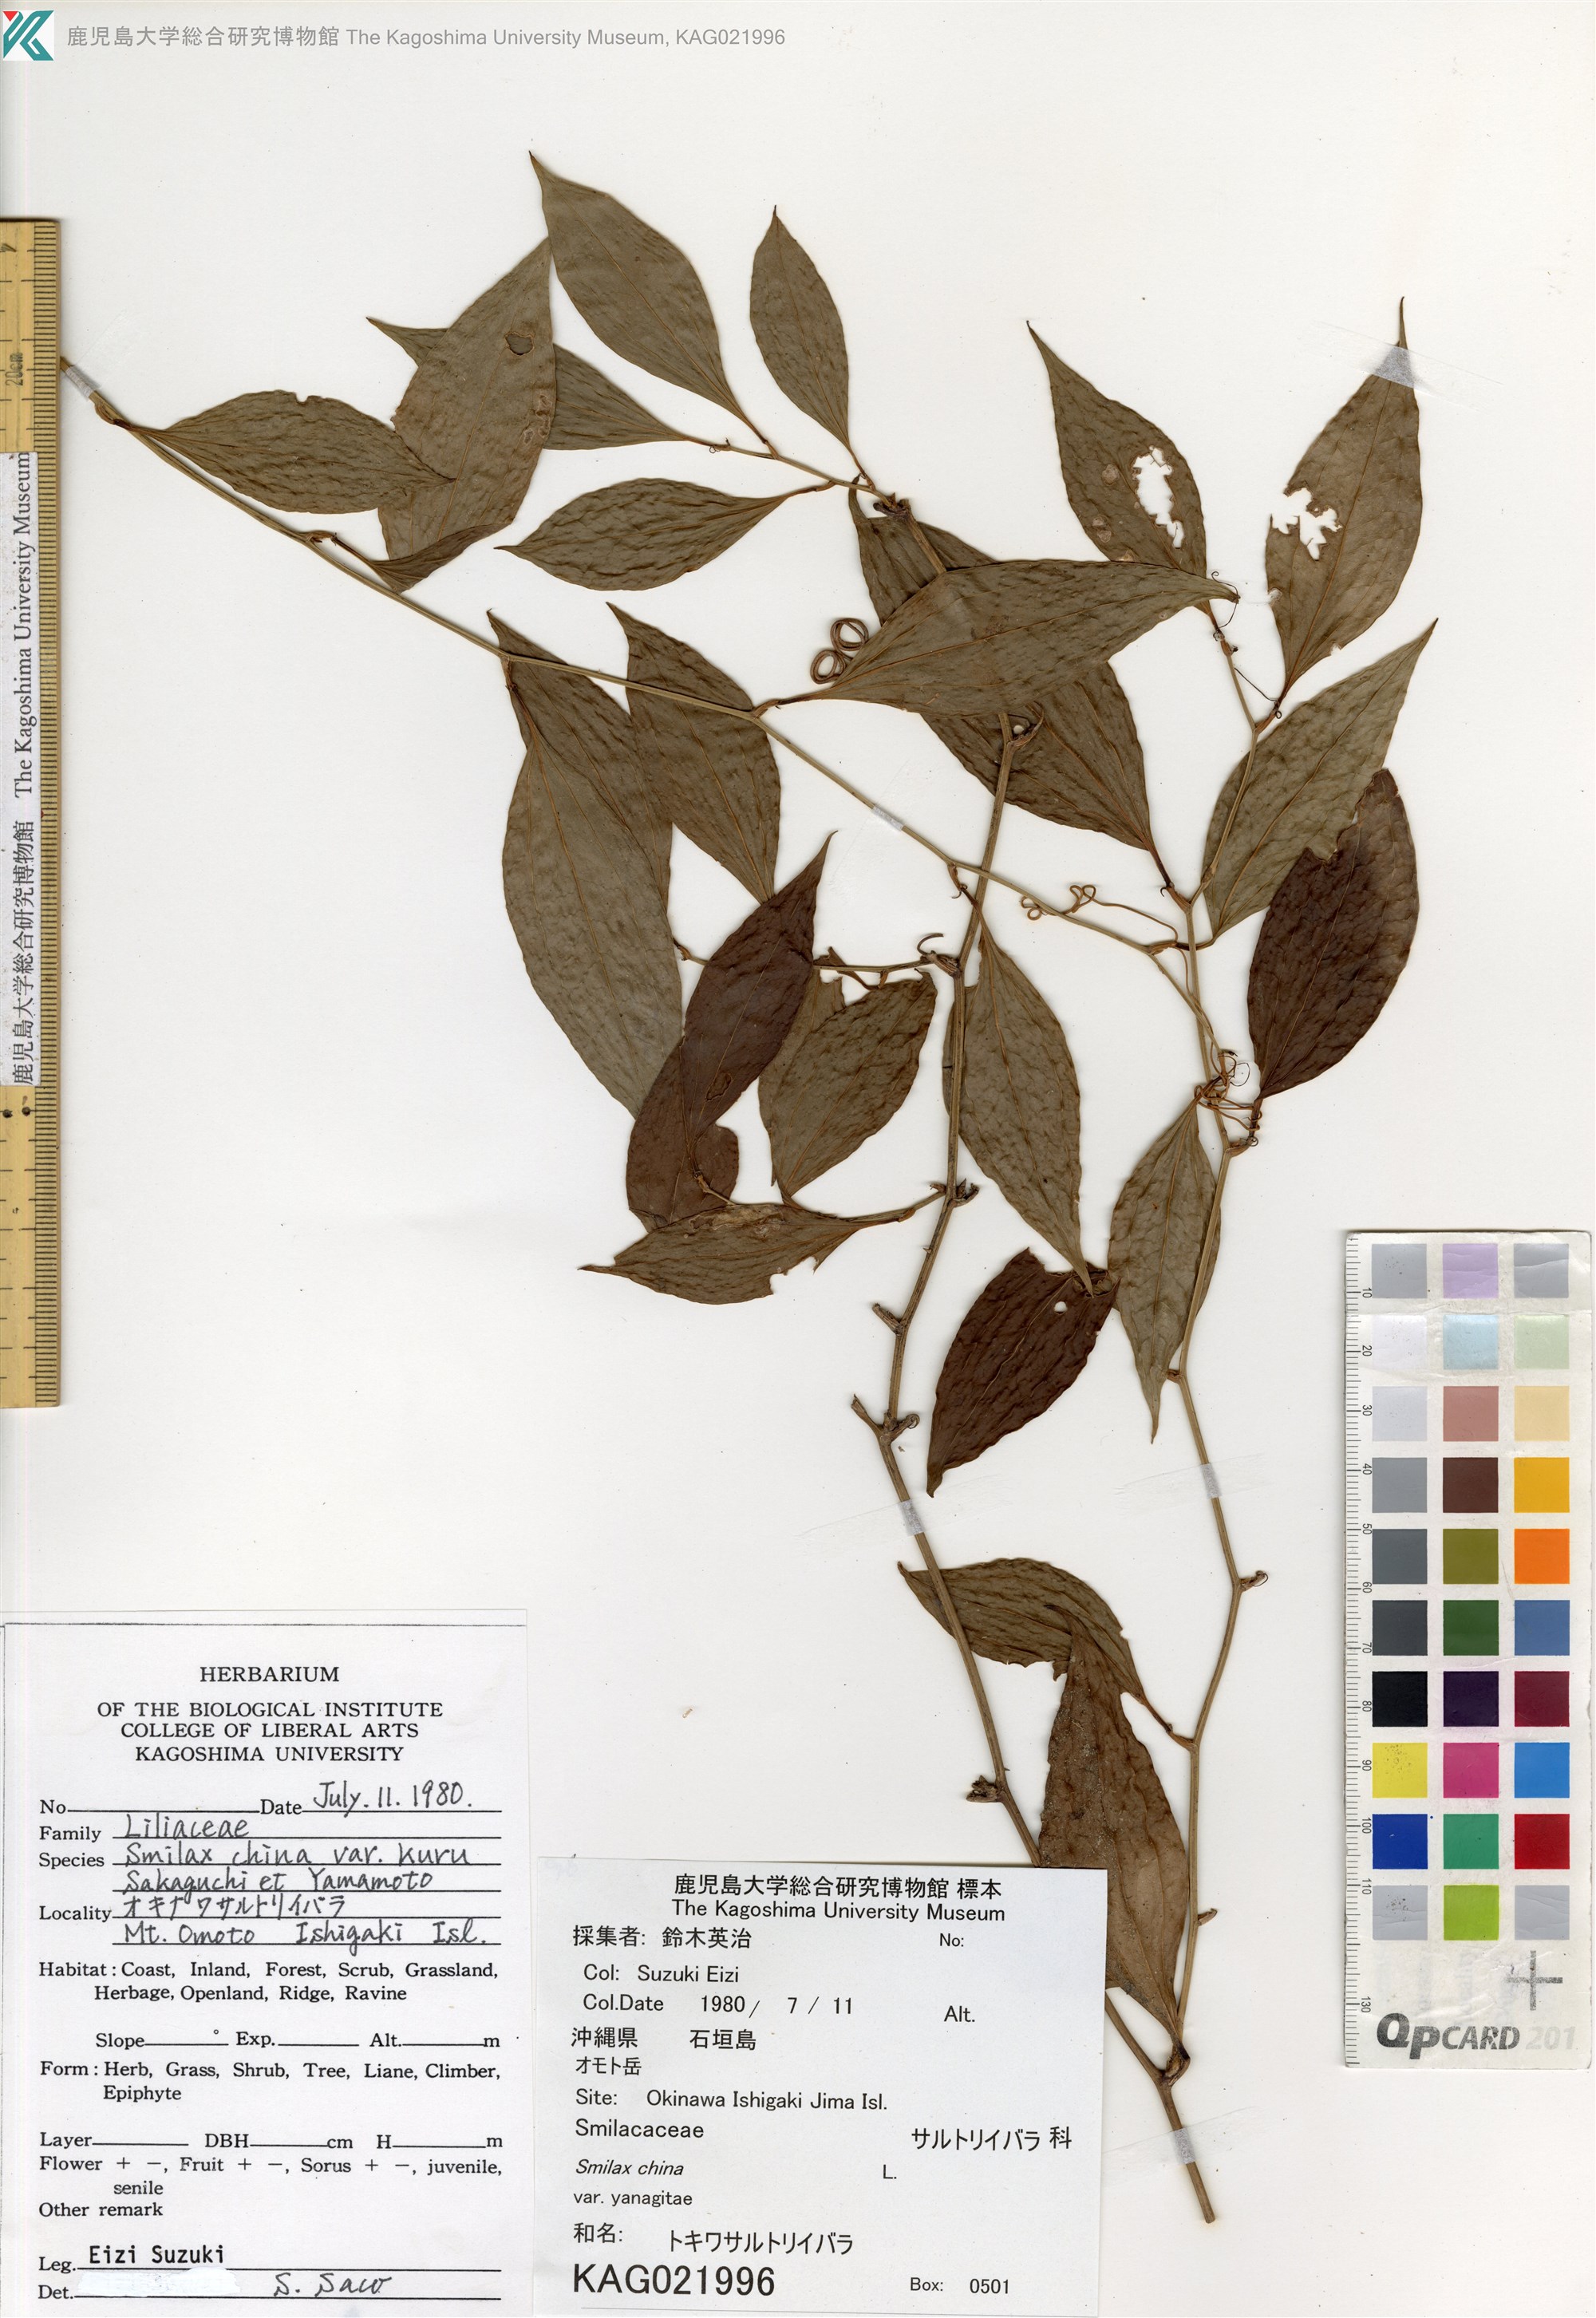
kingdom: Plantae
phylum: Tracheophyta
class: Liliopsida
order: Liliales
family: Smilacaceae
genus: Smilax
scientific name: Smilax china
